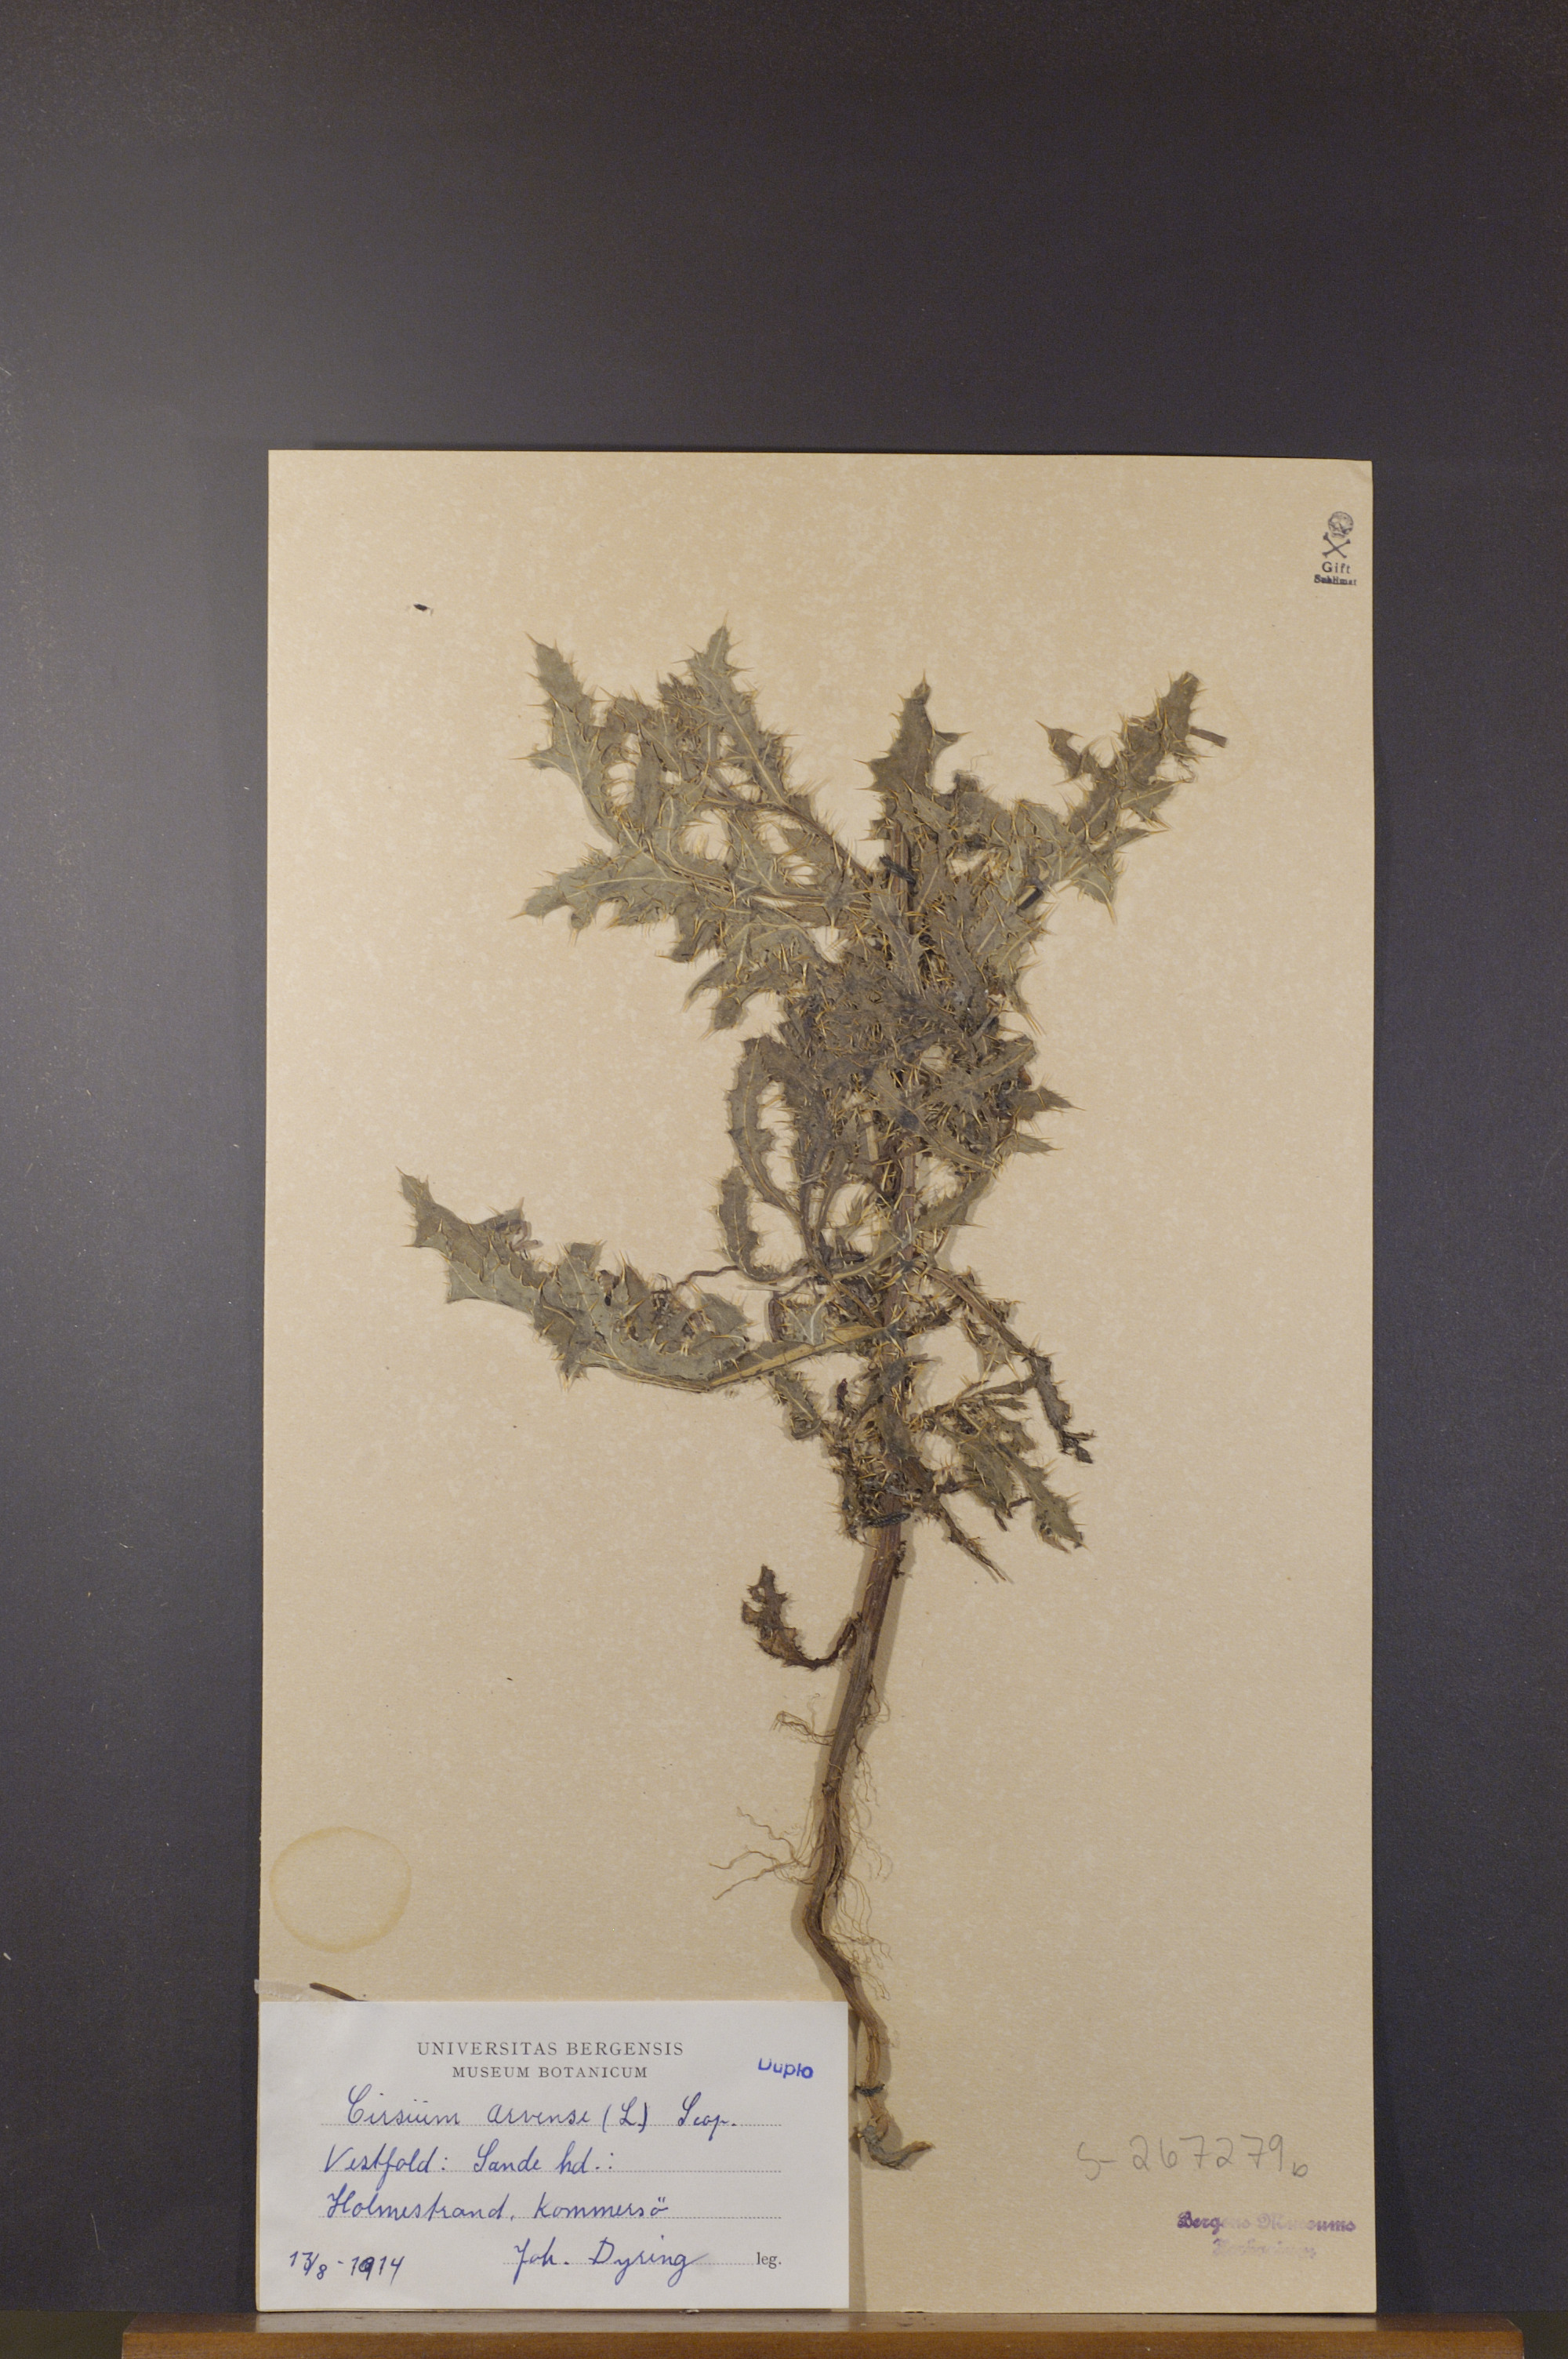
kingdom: Plantae
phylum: Tracheophyta
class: Magnoliopsida
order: Asterales
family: Asteraceae
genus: Cirsium
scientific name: Cirsium arvense
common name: Creeping thistle
